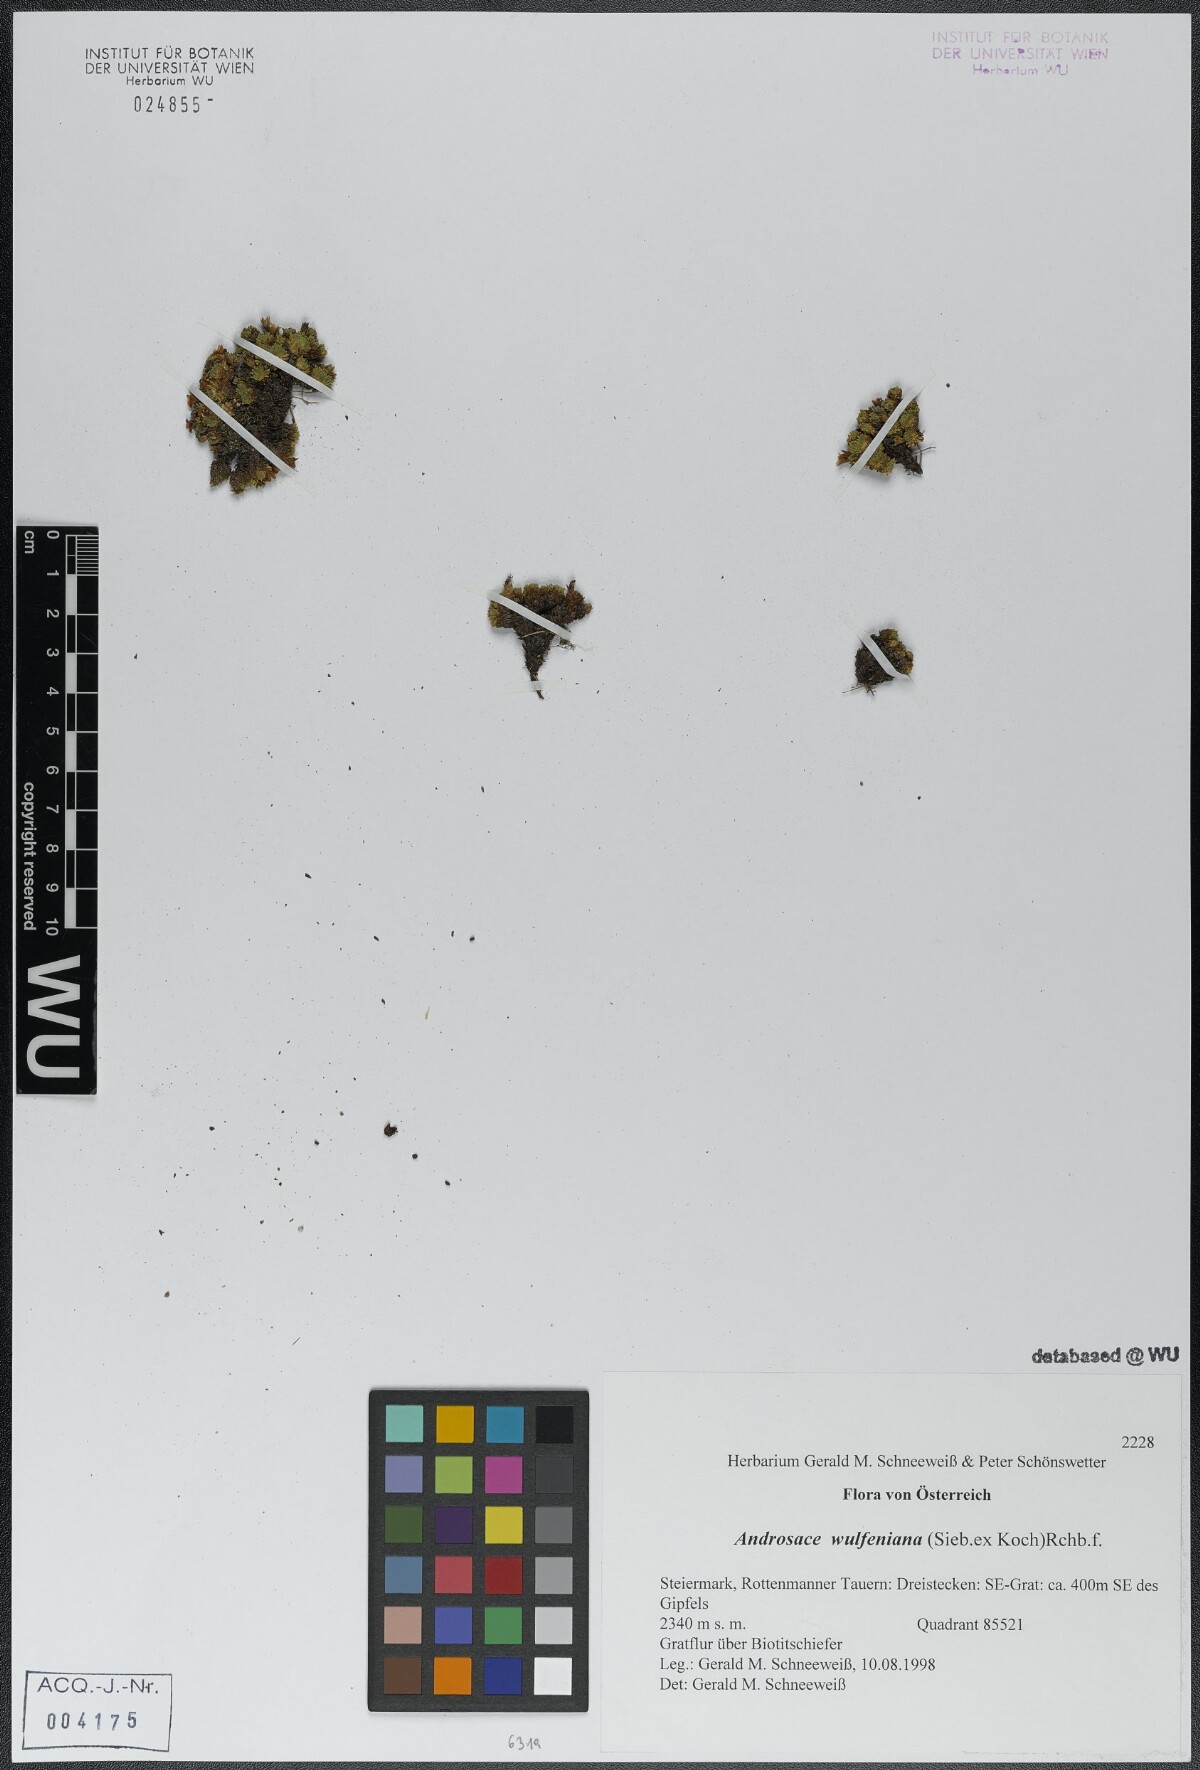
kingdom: Plantae
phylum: Tracheophyta
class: Magnoliopsida
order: Ericales
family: Primulaceae
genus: Androsace
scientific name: Androsace wulfeniana
